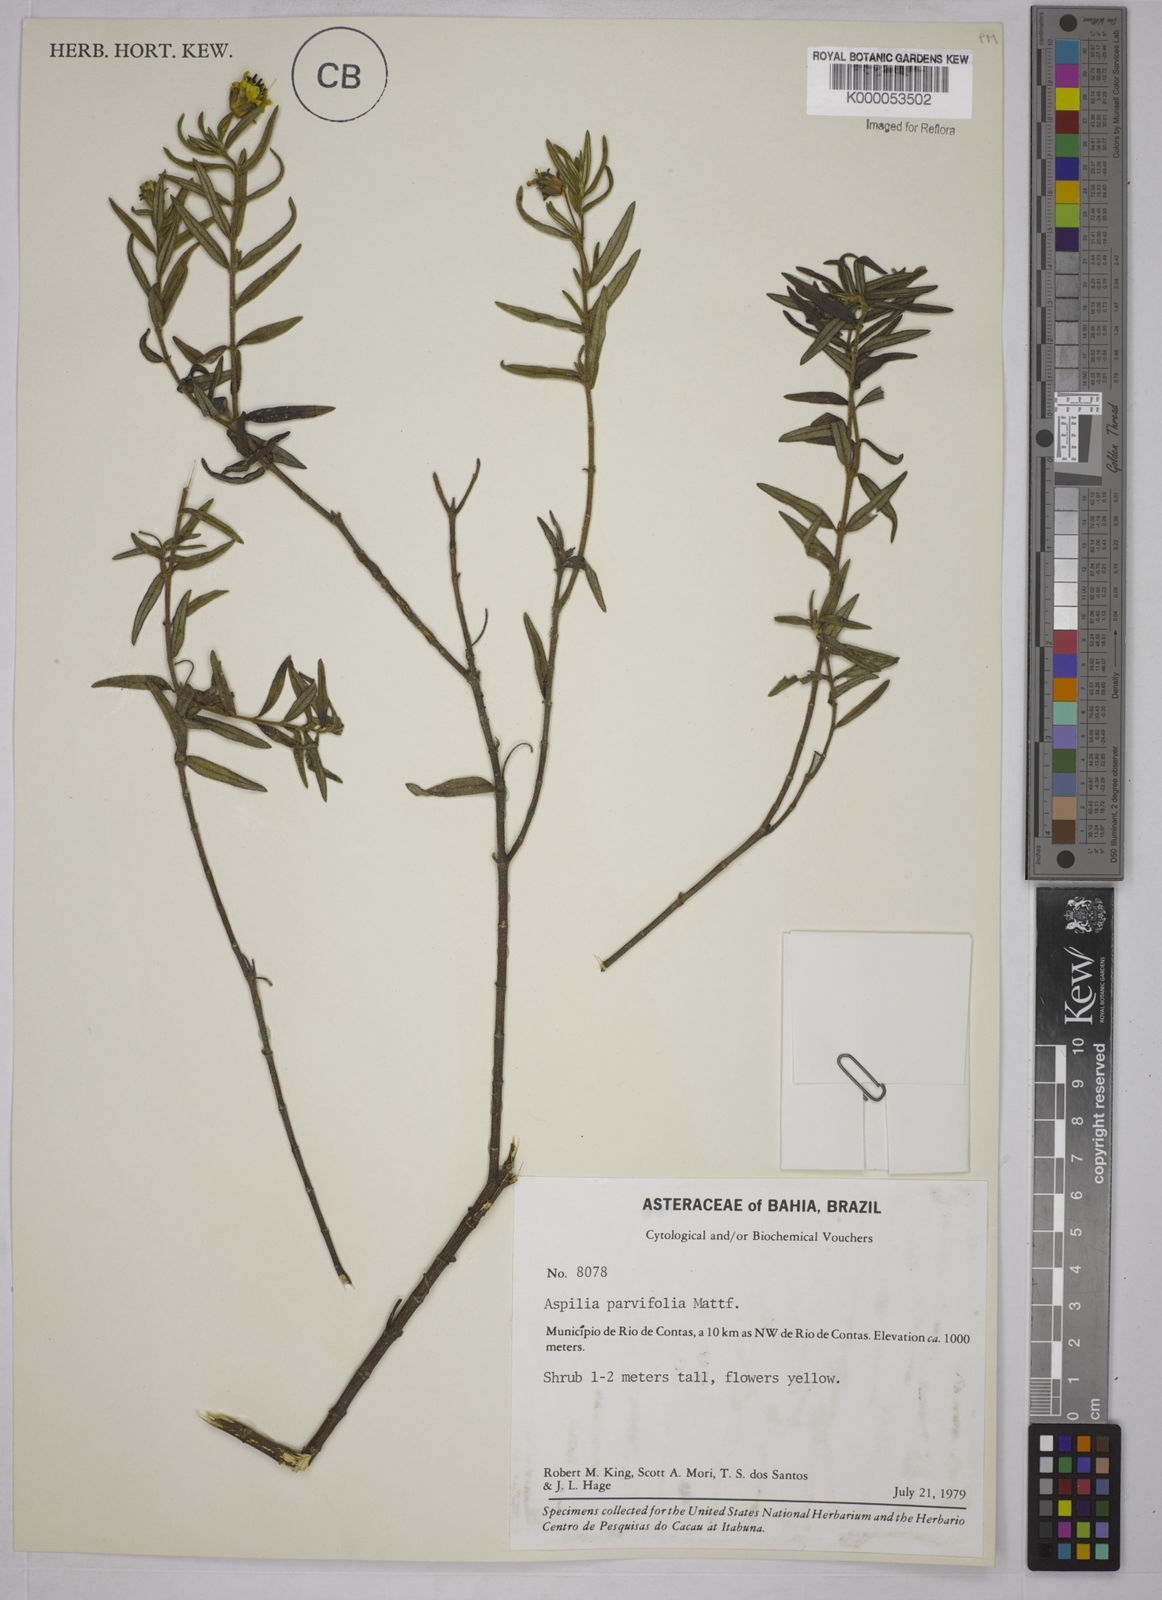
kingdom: Plantae
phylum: Tracheophyta
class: Magnoliopsida
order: Asterales
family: Asteraceae
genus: Aspilia
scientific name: Aspilia foliosa
